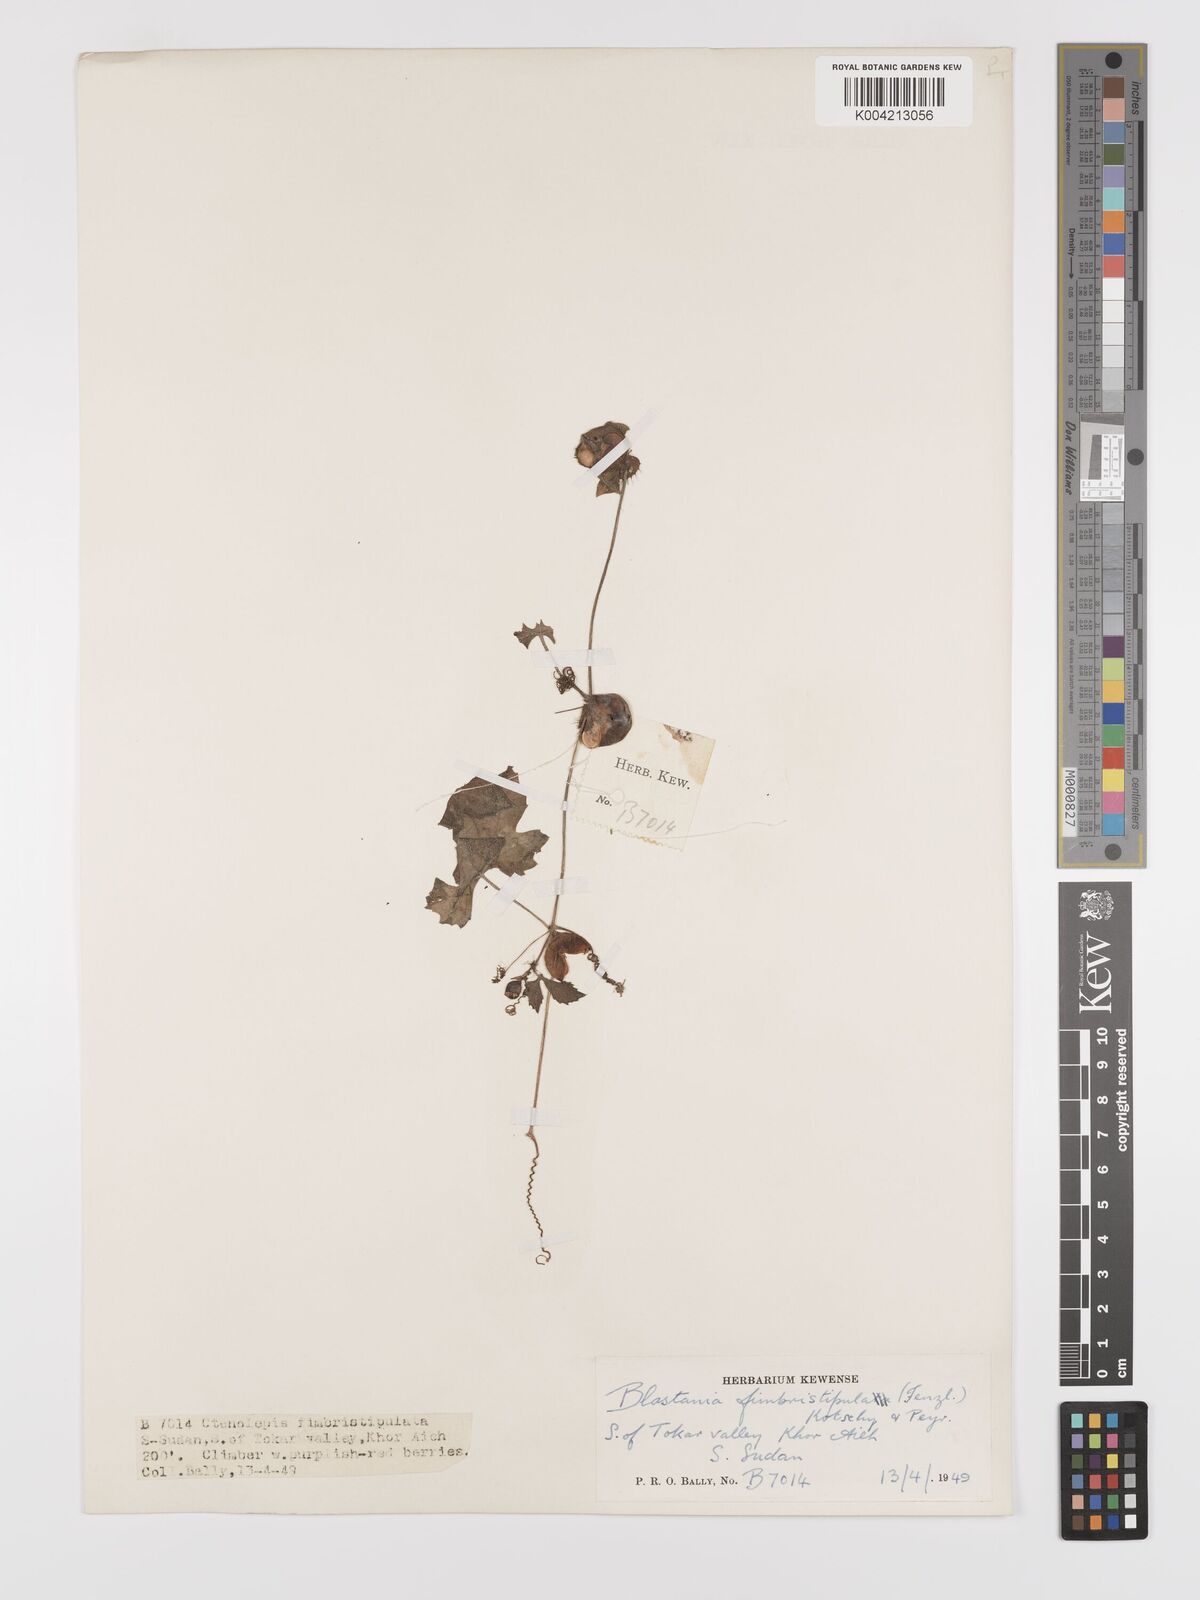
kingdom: Plantae
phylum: Tracheophyta
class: Magnoliopsida
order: Cucurbitales
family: Cucurbitaceae
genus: Blastania
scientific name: Blastania cerasiformis
